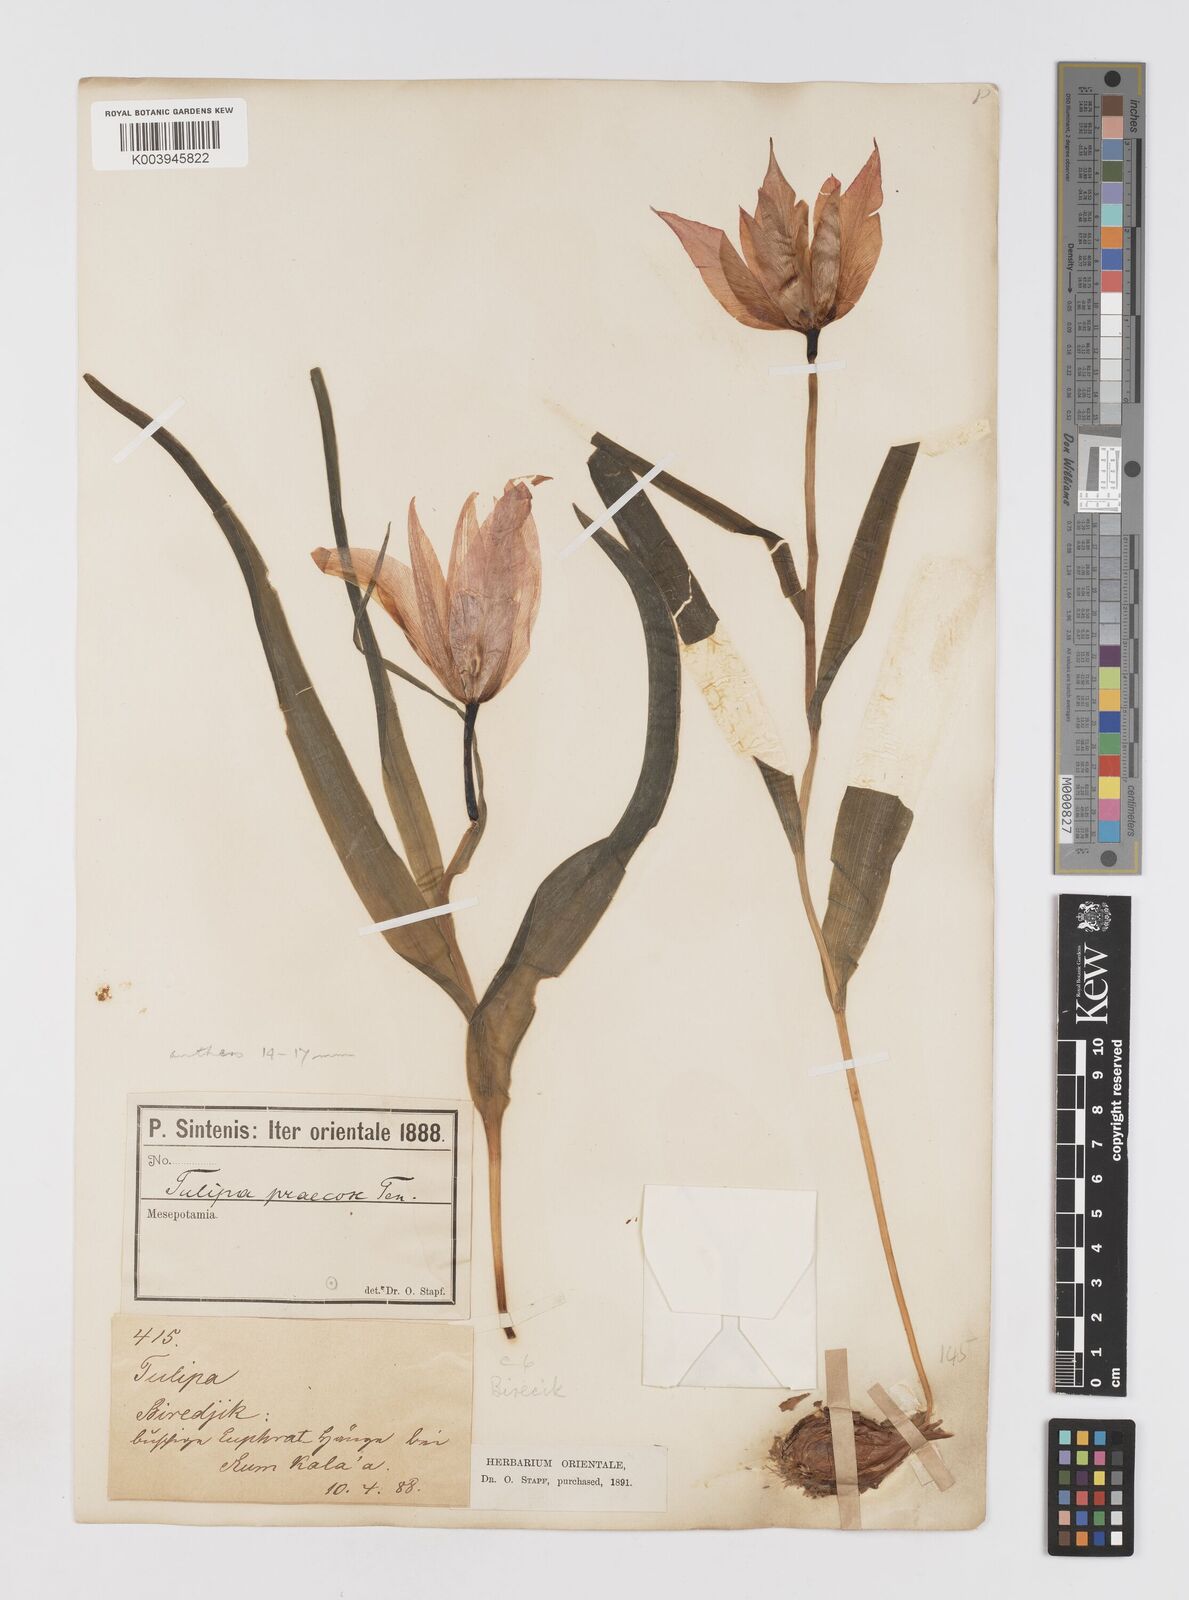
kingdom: Plantae
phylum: Tracheophyta
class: Liliopsida
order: Liliales
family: Liliaceae
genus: Tulipa
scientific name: Tulipa aleppensis
